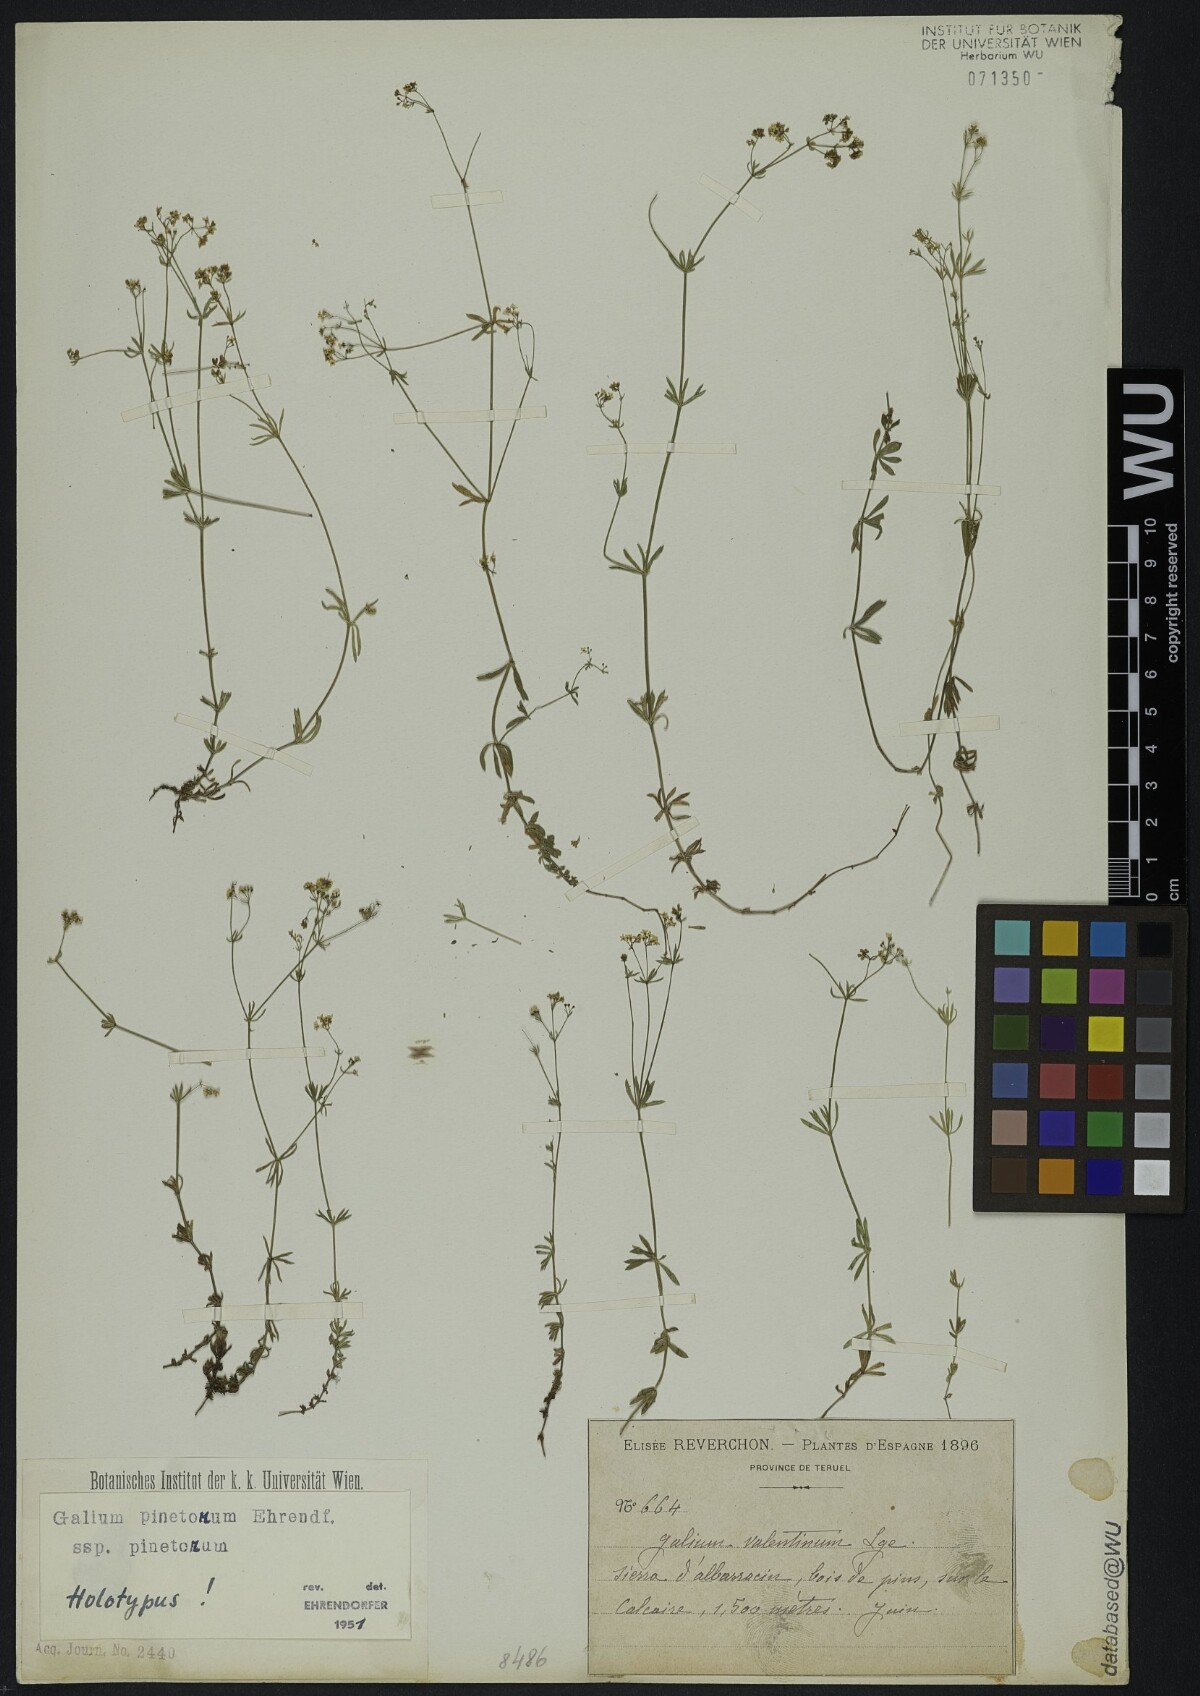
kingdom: Plantae
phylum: Tracheophyta
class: Magnoliopsida
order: Gentianales
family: Rubiaceae
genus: Galium
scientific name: Galium estebanii
